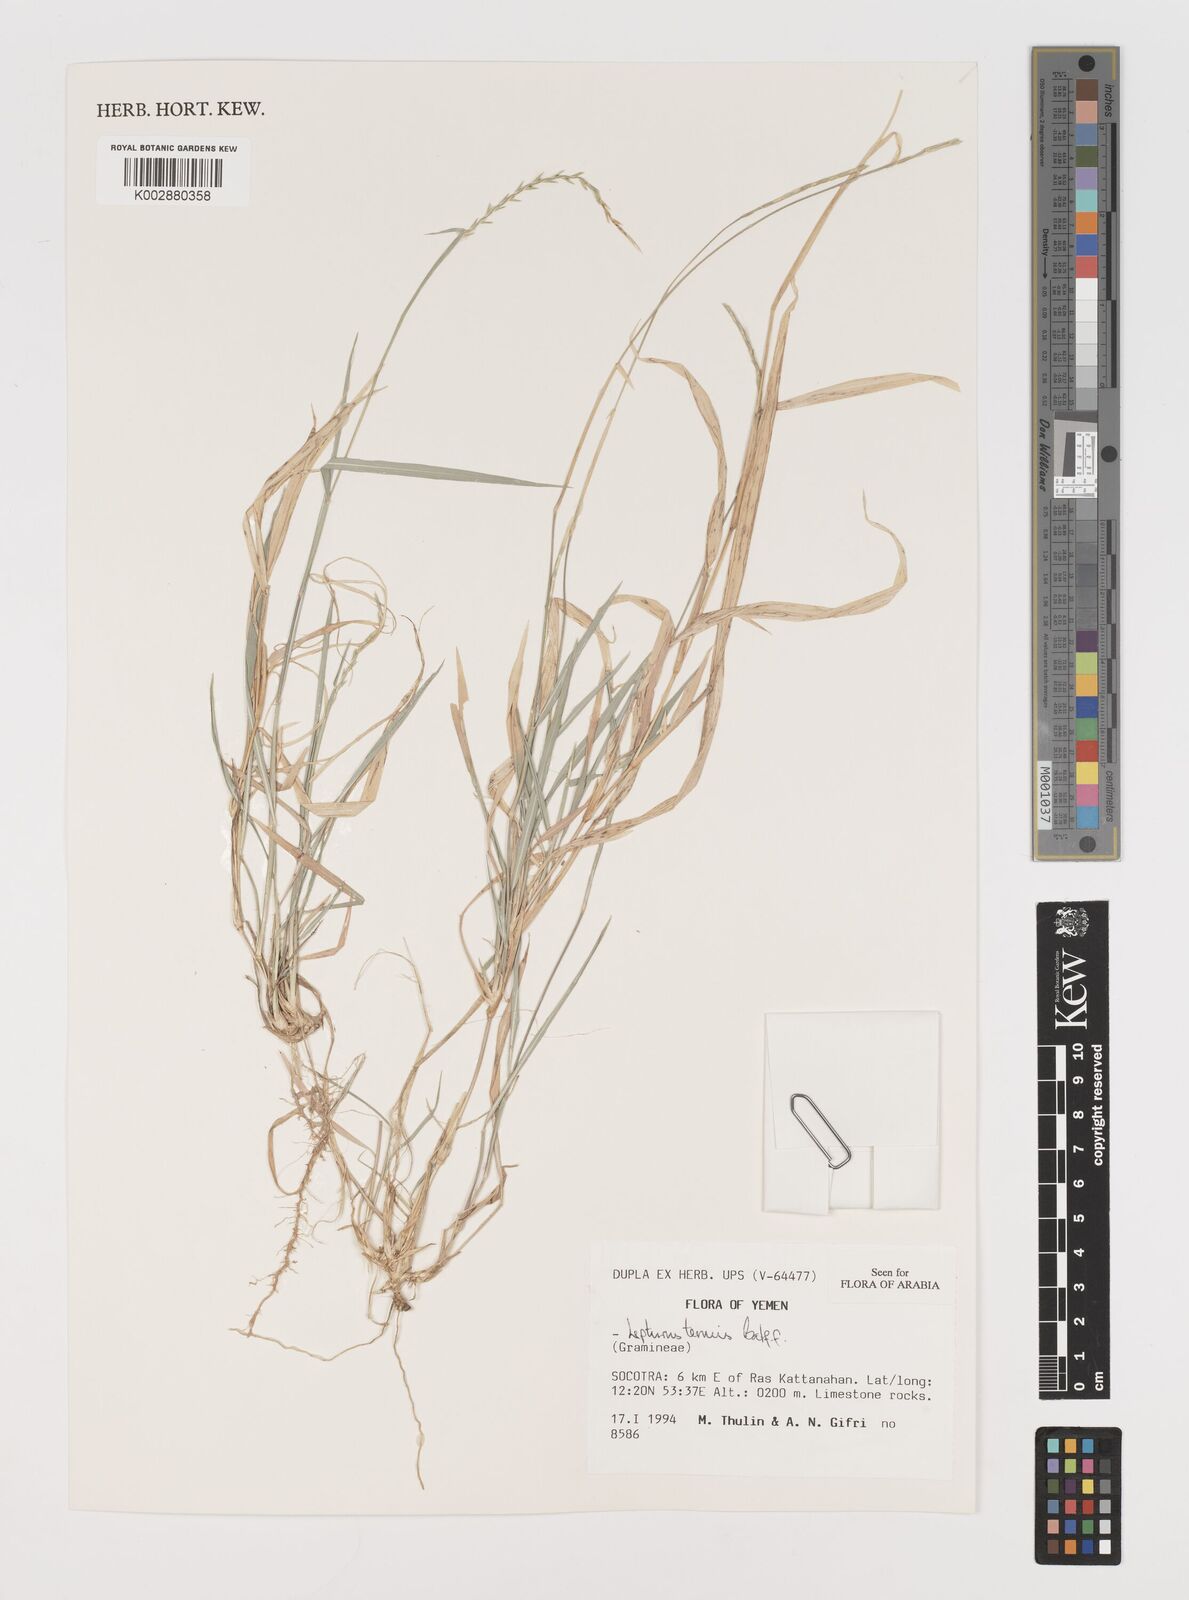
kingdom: Plantae
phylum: Tracheophyta
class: Liliopsida
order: Poales
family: Poaceae
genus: Lepturus
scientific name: Lepturus tenuis
